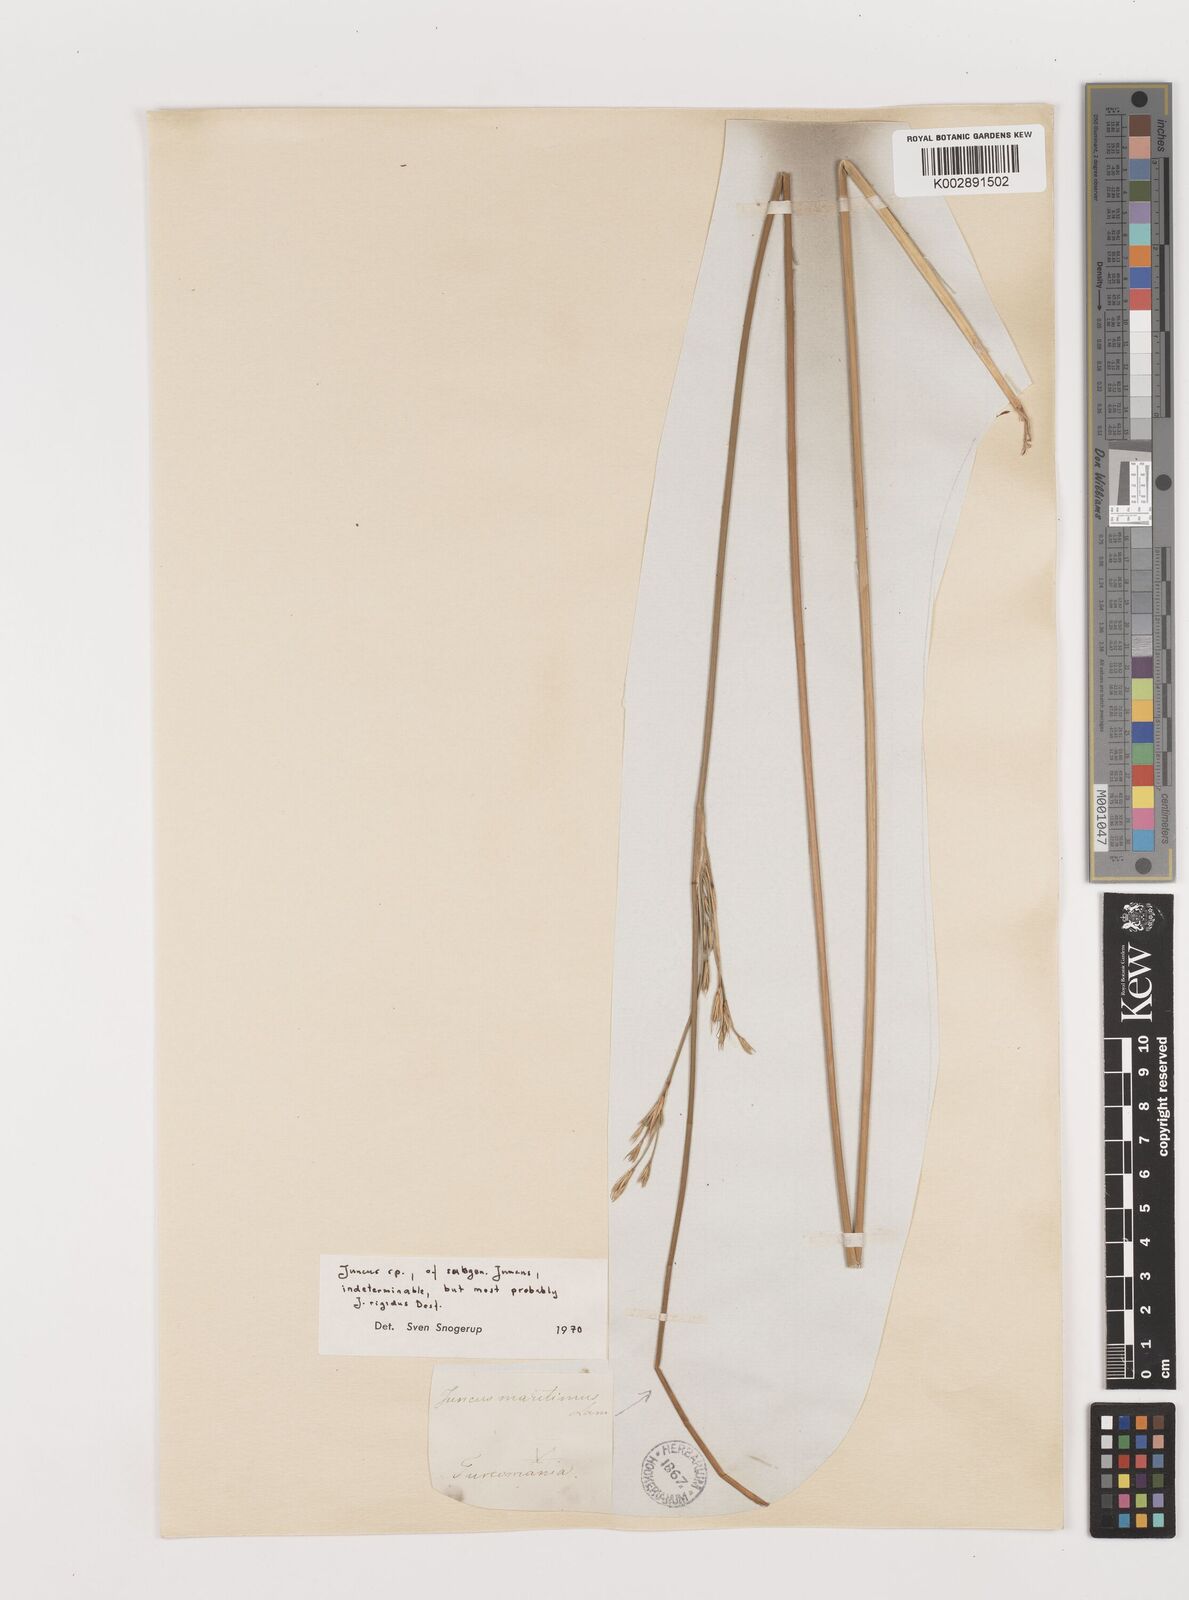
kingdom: Plantae
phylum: Tracheophyta
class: Liliopsida
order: Poales
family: Juncaceae
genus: Juncus
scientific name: Juncus rigidus
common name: Hard sea rush
